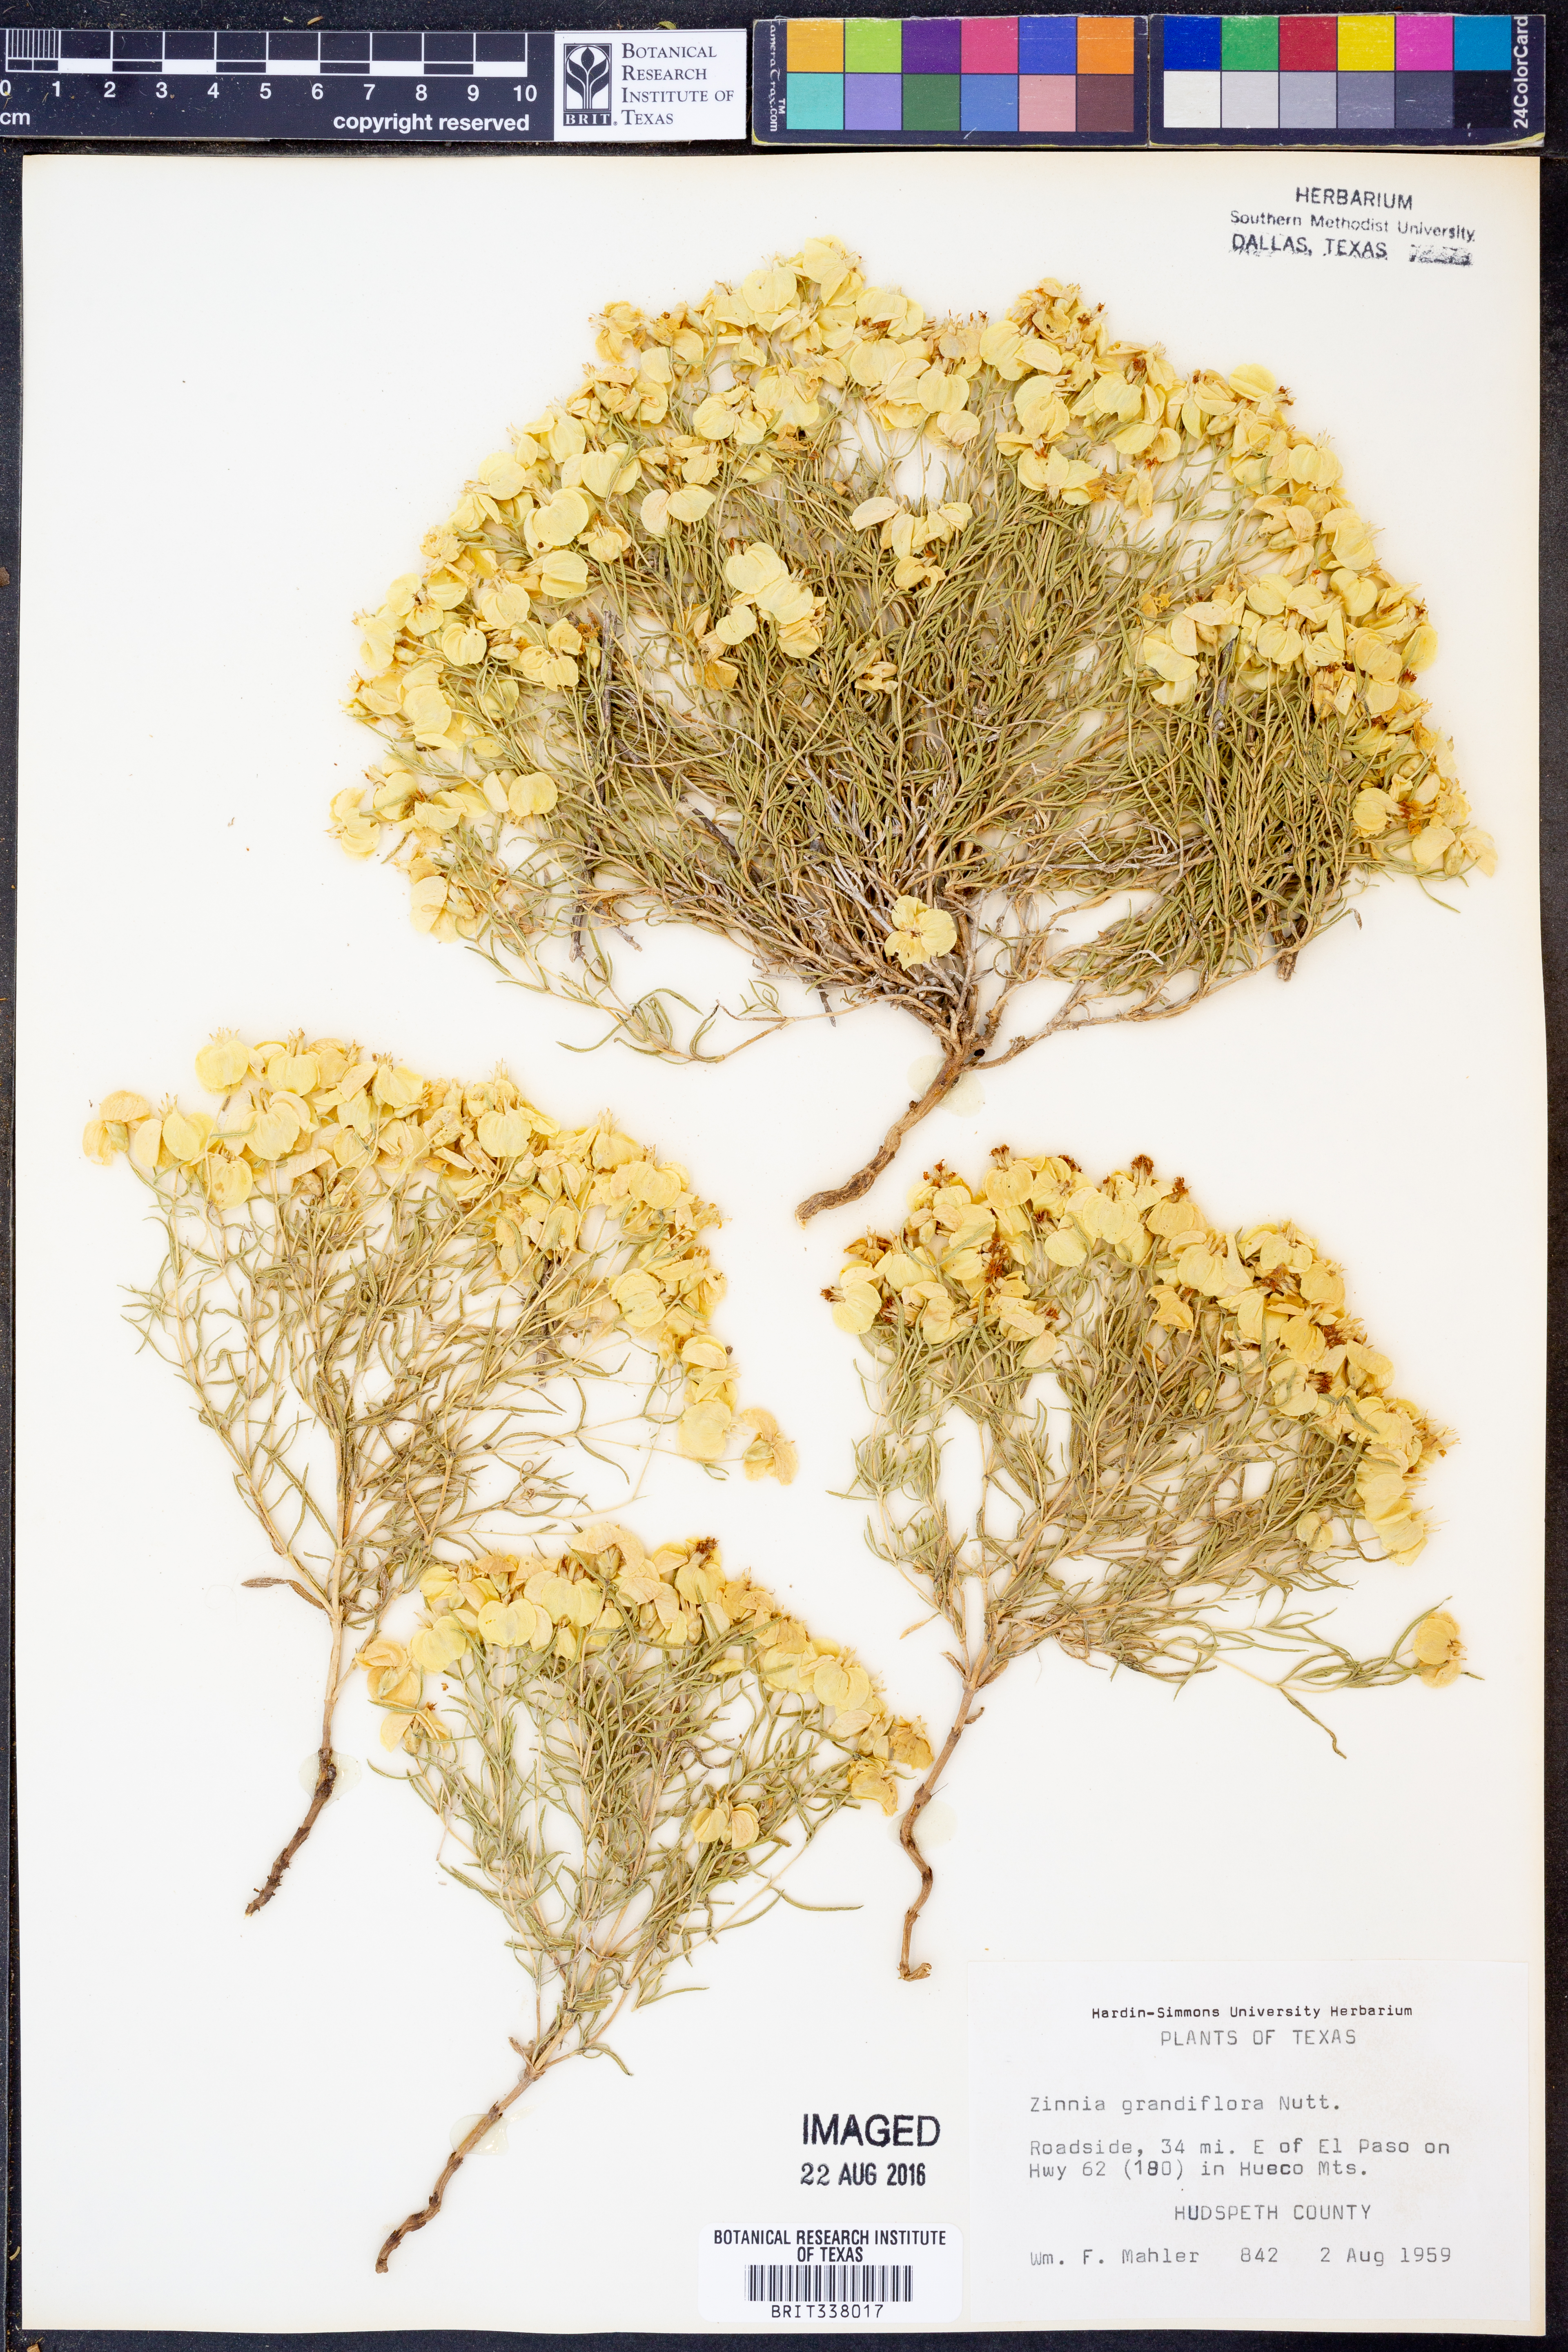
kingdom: Plantae
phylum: Tracheophyta
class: Magnoliopsida
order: Asterales
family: Asteraceae
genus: Zinnia
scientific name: Zinnia grandiflora
